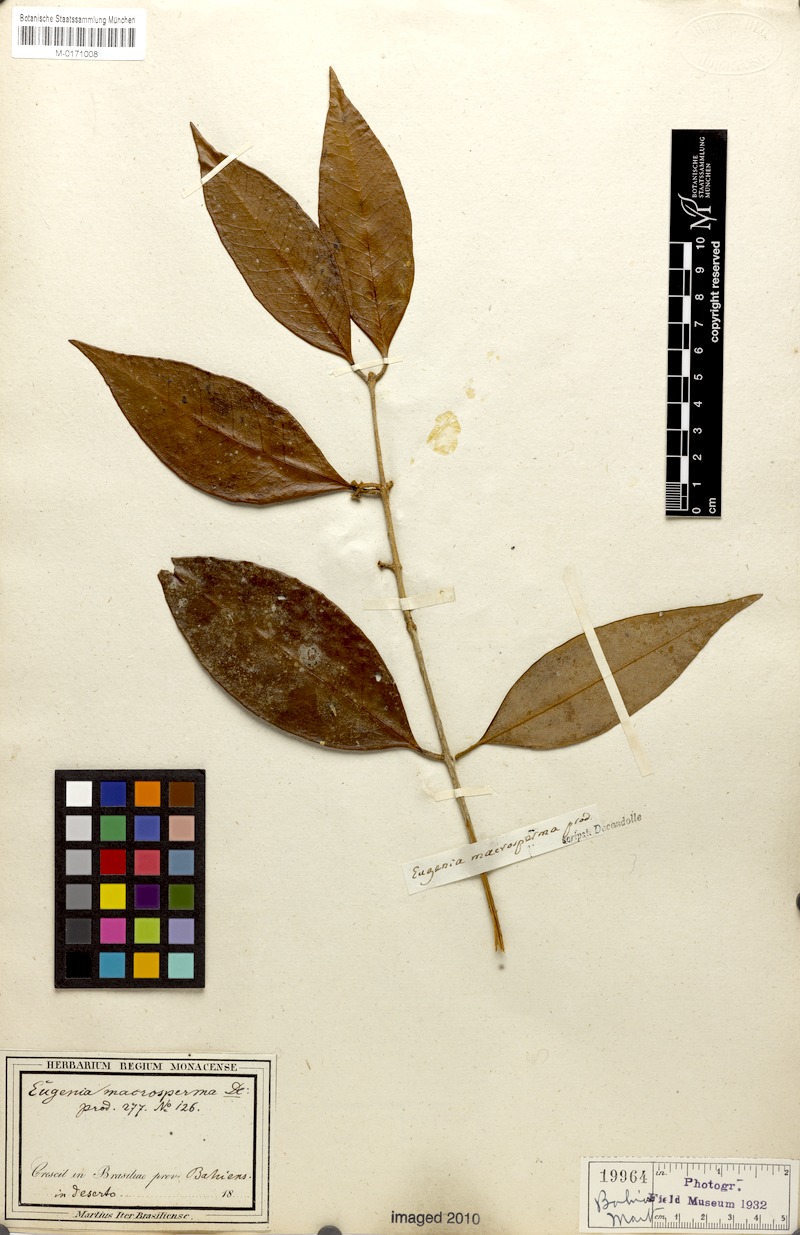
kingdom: Plantae
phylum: Tracheophyta
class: Magnoliopsida
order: Myrtales
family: Myrtaceae
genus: Eugenia
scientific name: Eugenia macrosperma
